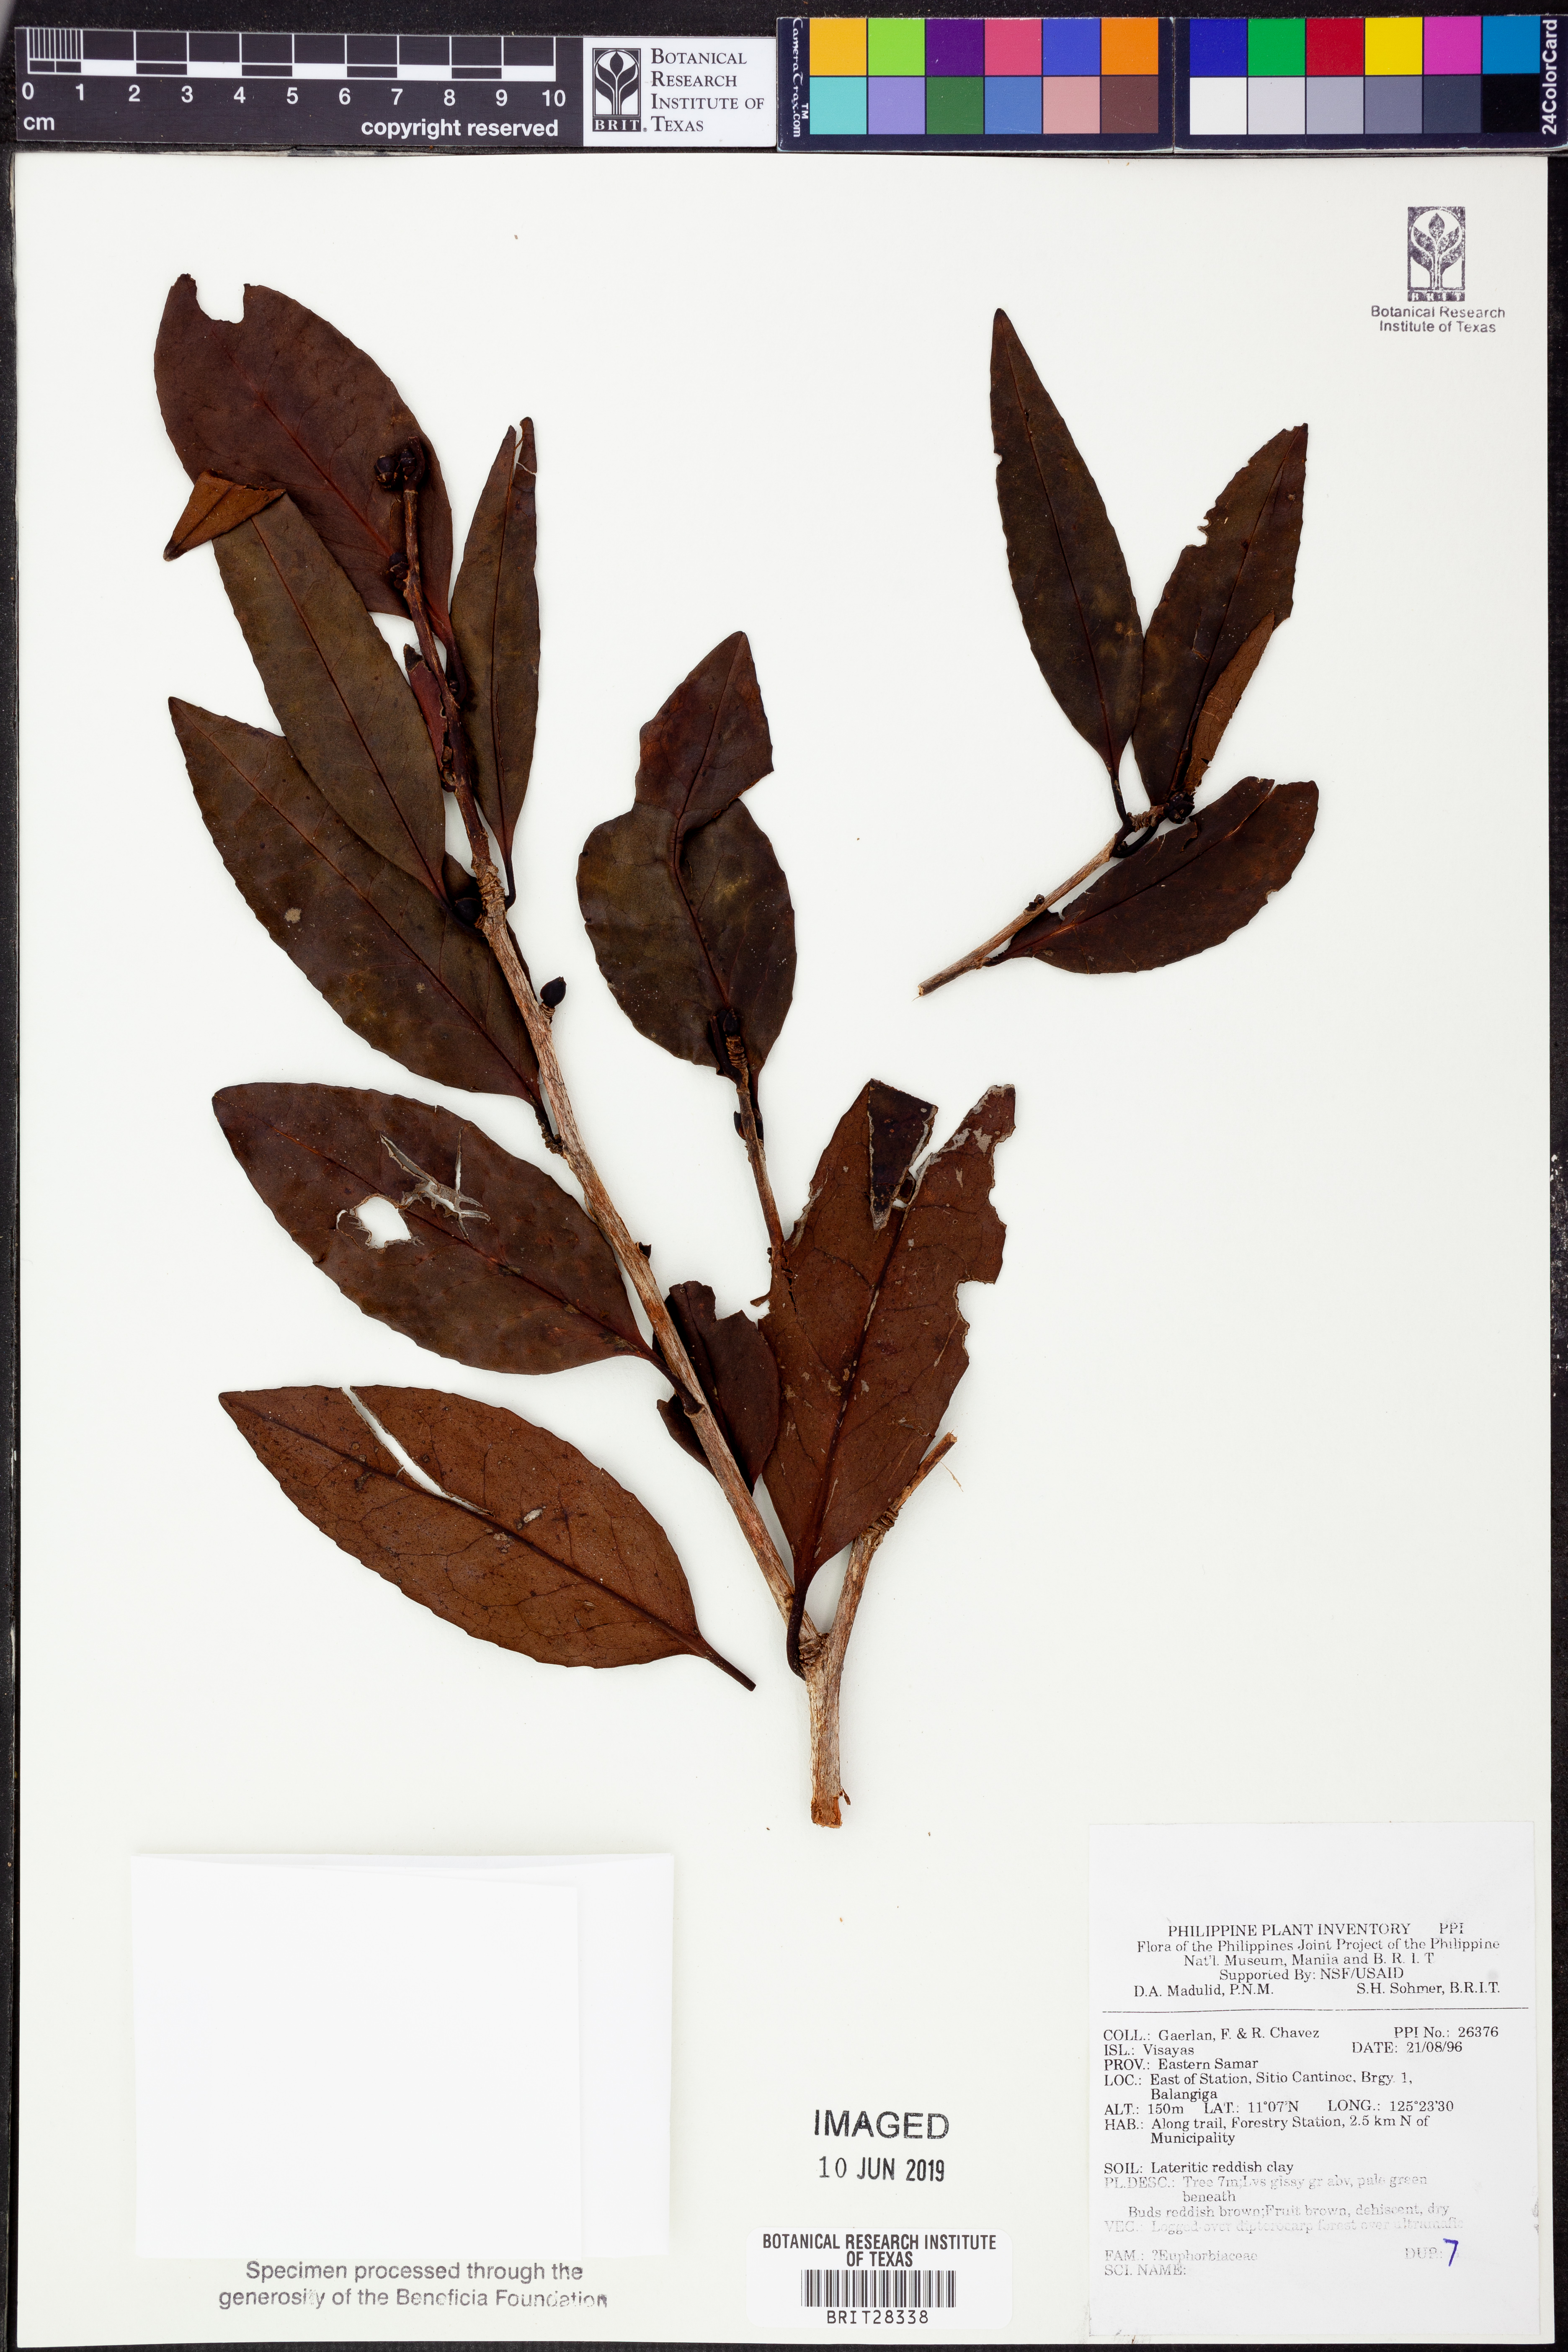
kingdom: Plantae
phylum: Tracheophyta
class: Magnoliopsida
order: Malpighiales
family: Euphorbiaceae
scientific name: Euphorbiaceae
